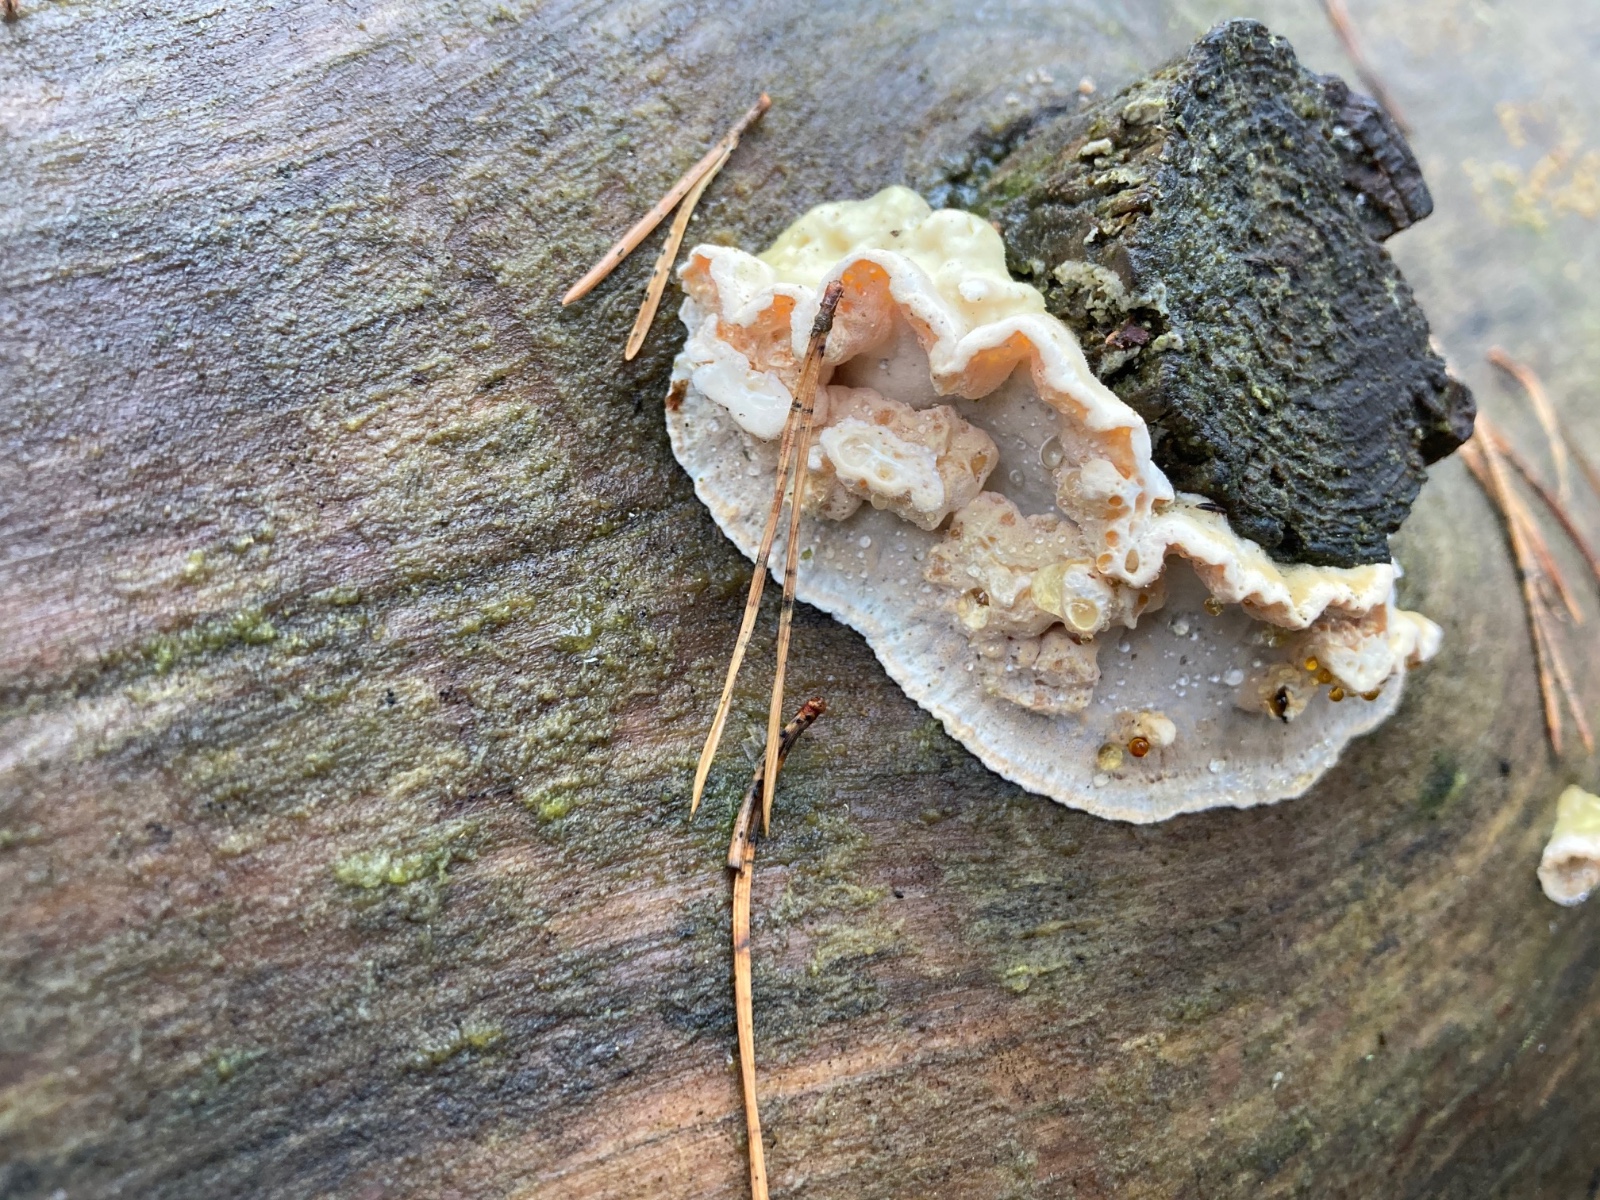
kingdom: Fungi
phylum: Basidiomycota
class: Agaricomycetes
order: Polyporales
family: Incrustoporiaceae
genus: Skeletocutis
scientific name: Skeletocutis amorpha
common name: orange krystalporesvamp
